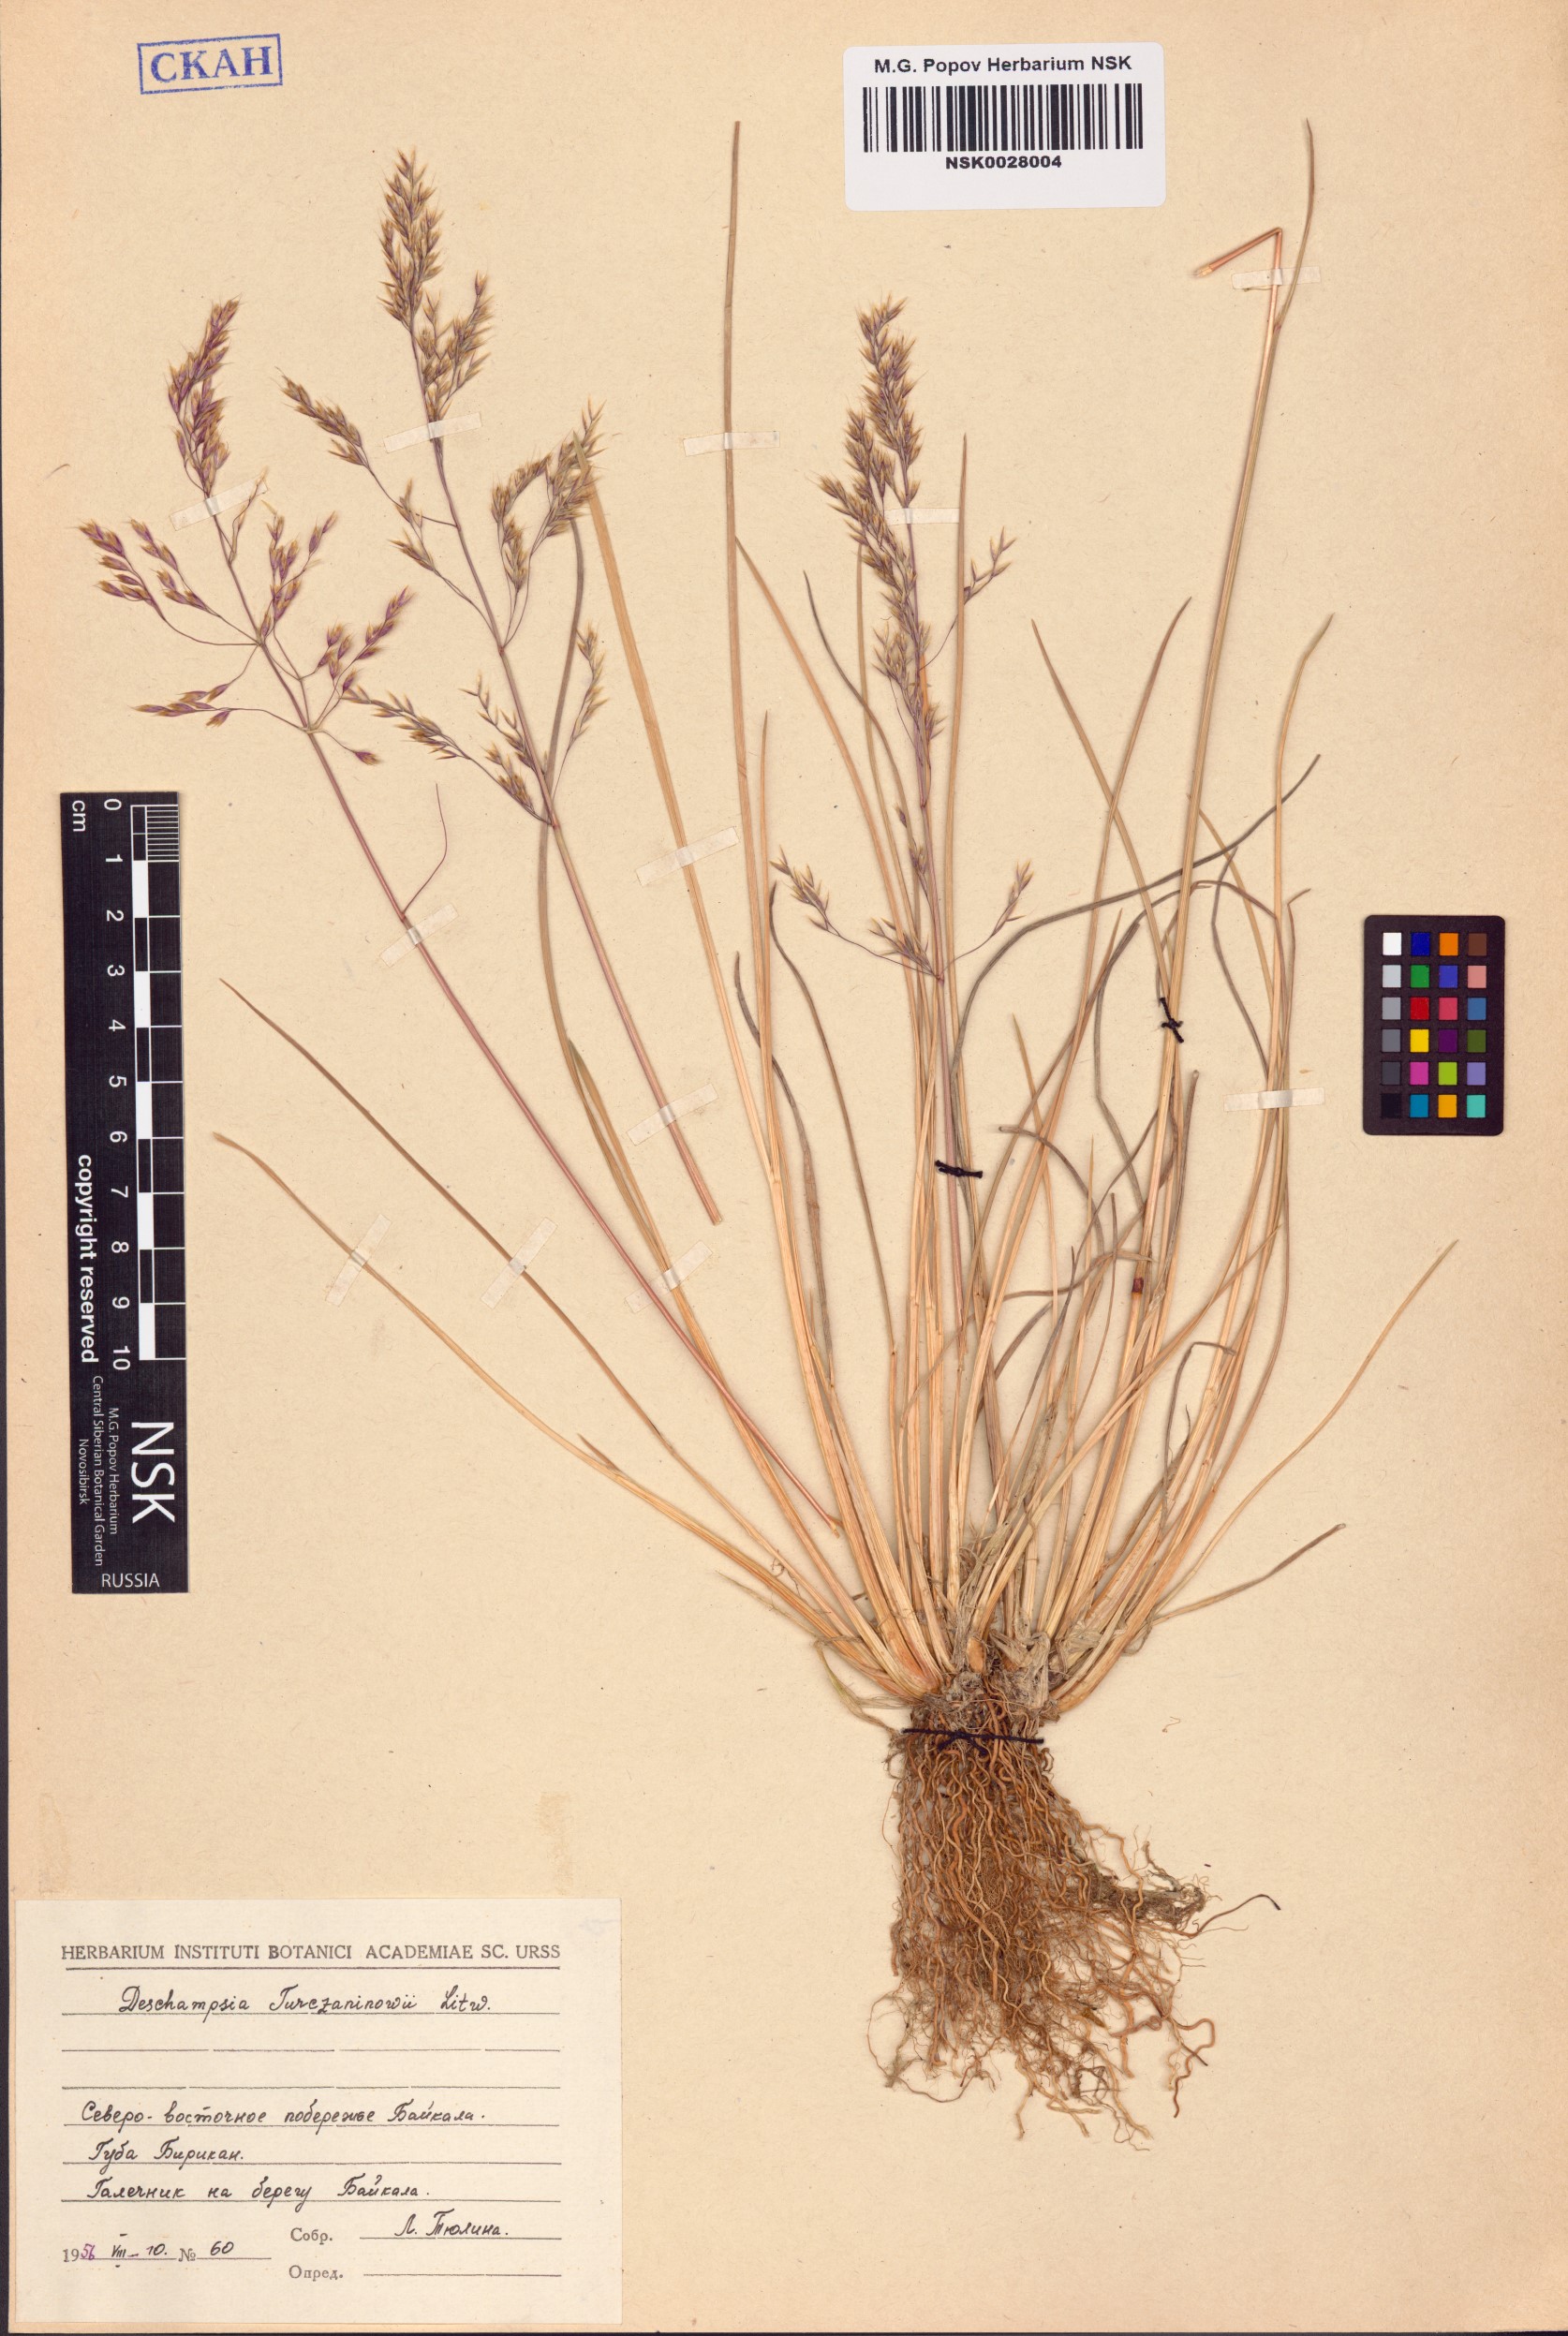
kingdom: Plantae
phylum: Tracheophyta
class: Liliopsida
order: Poales
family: Poaceae
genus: Deschampsia
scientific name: Deschampsia cespitosa
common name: Tufted hair-grass
